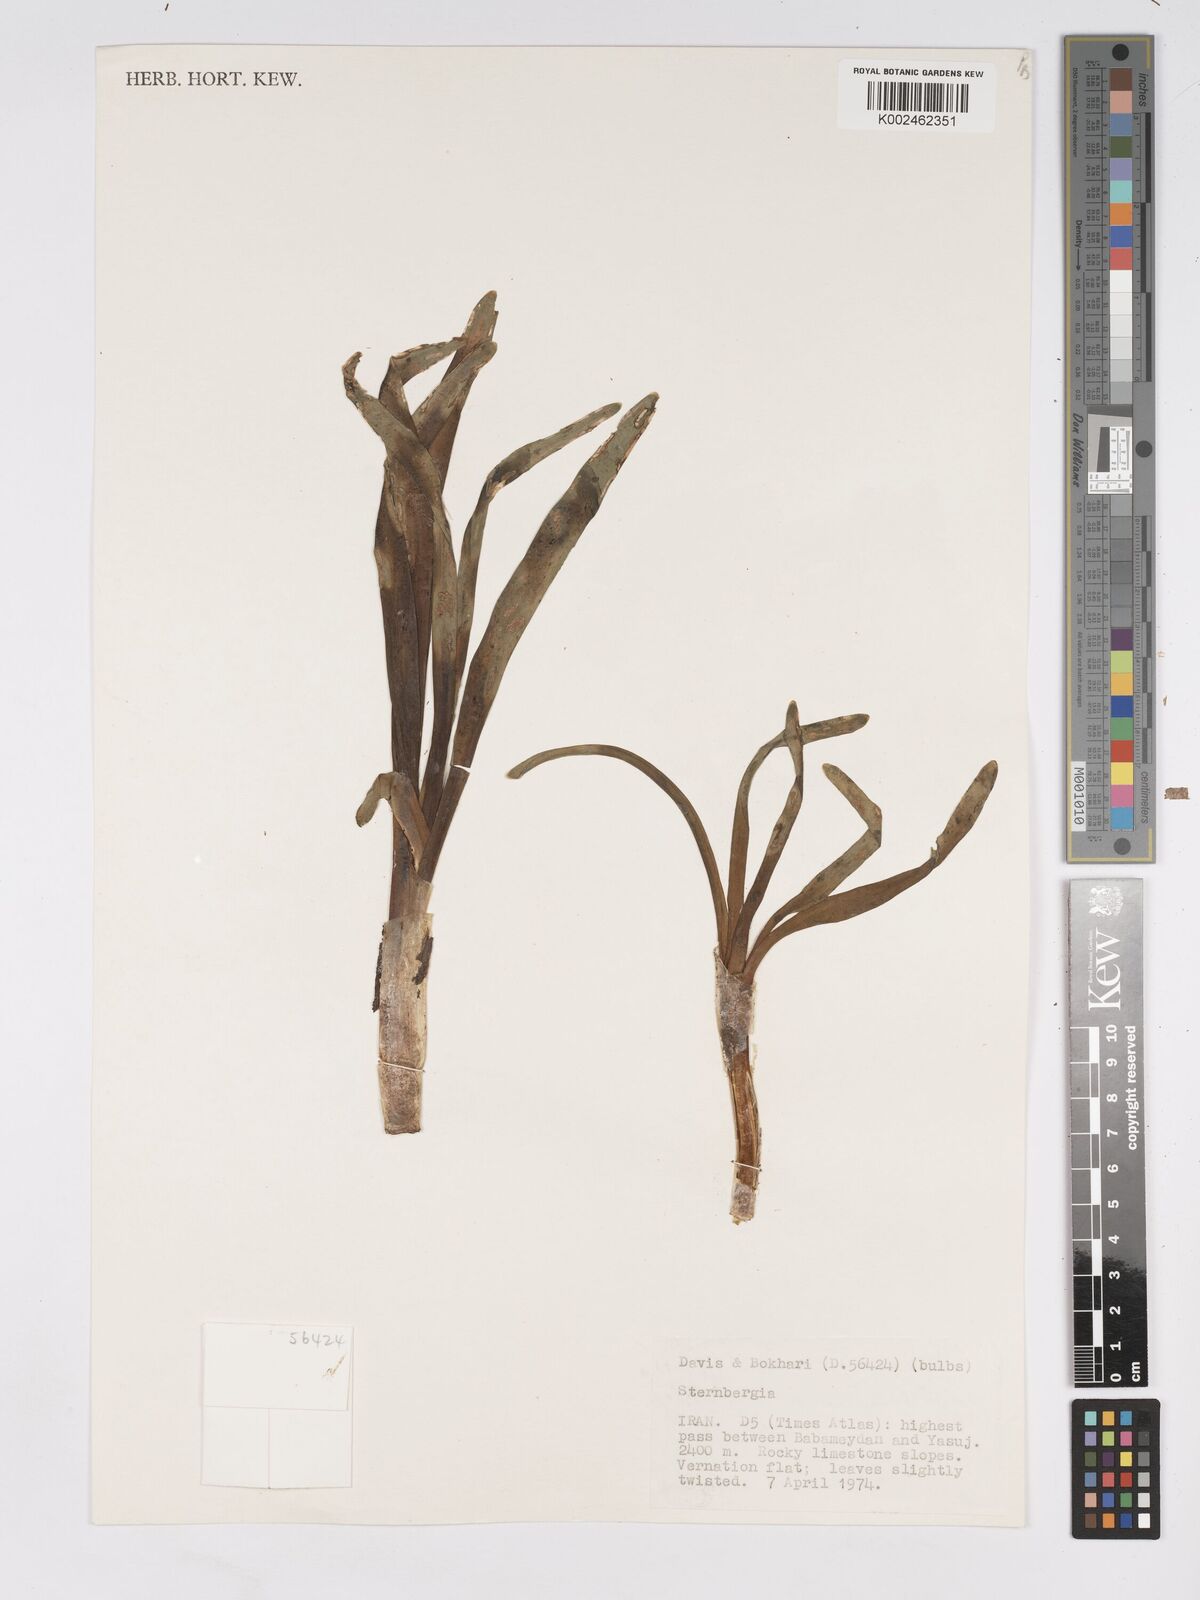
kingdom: Plantae
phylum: Tracheophyta
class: Liliopsida
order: Asparagales
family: Amaryllidaceae
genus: Sternbergia
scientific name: Sternbergia clusiana
